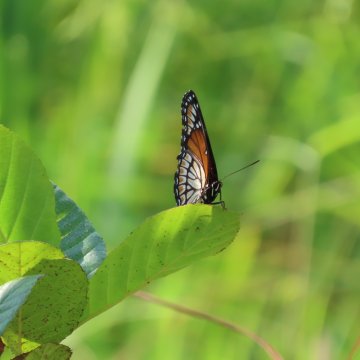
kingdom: Animalia
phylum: Arthropoda
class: Insecta
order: Lepidoptera
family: Nymphalidae
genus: Limenitis
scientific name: Limenitis archippus
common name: Viceroy
